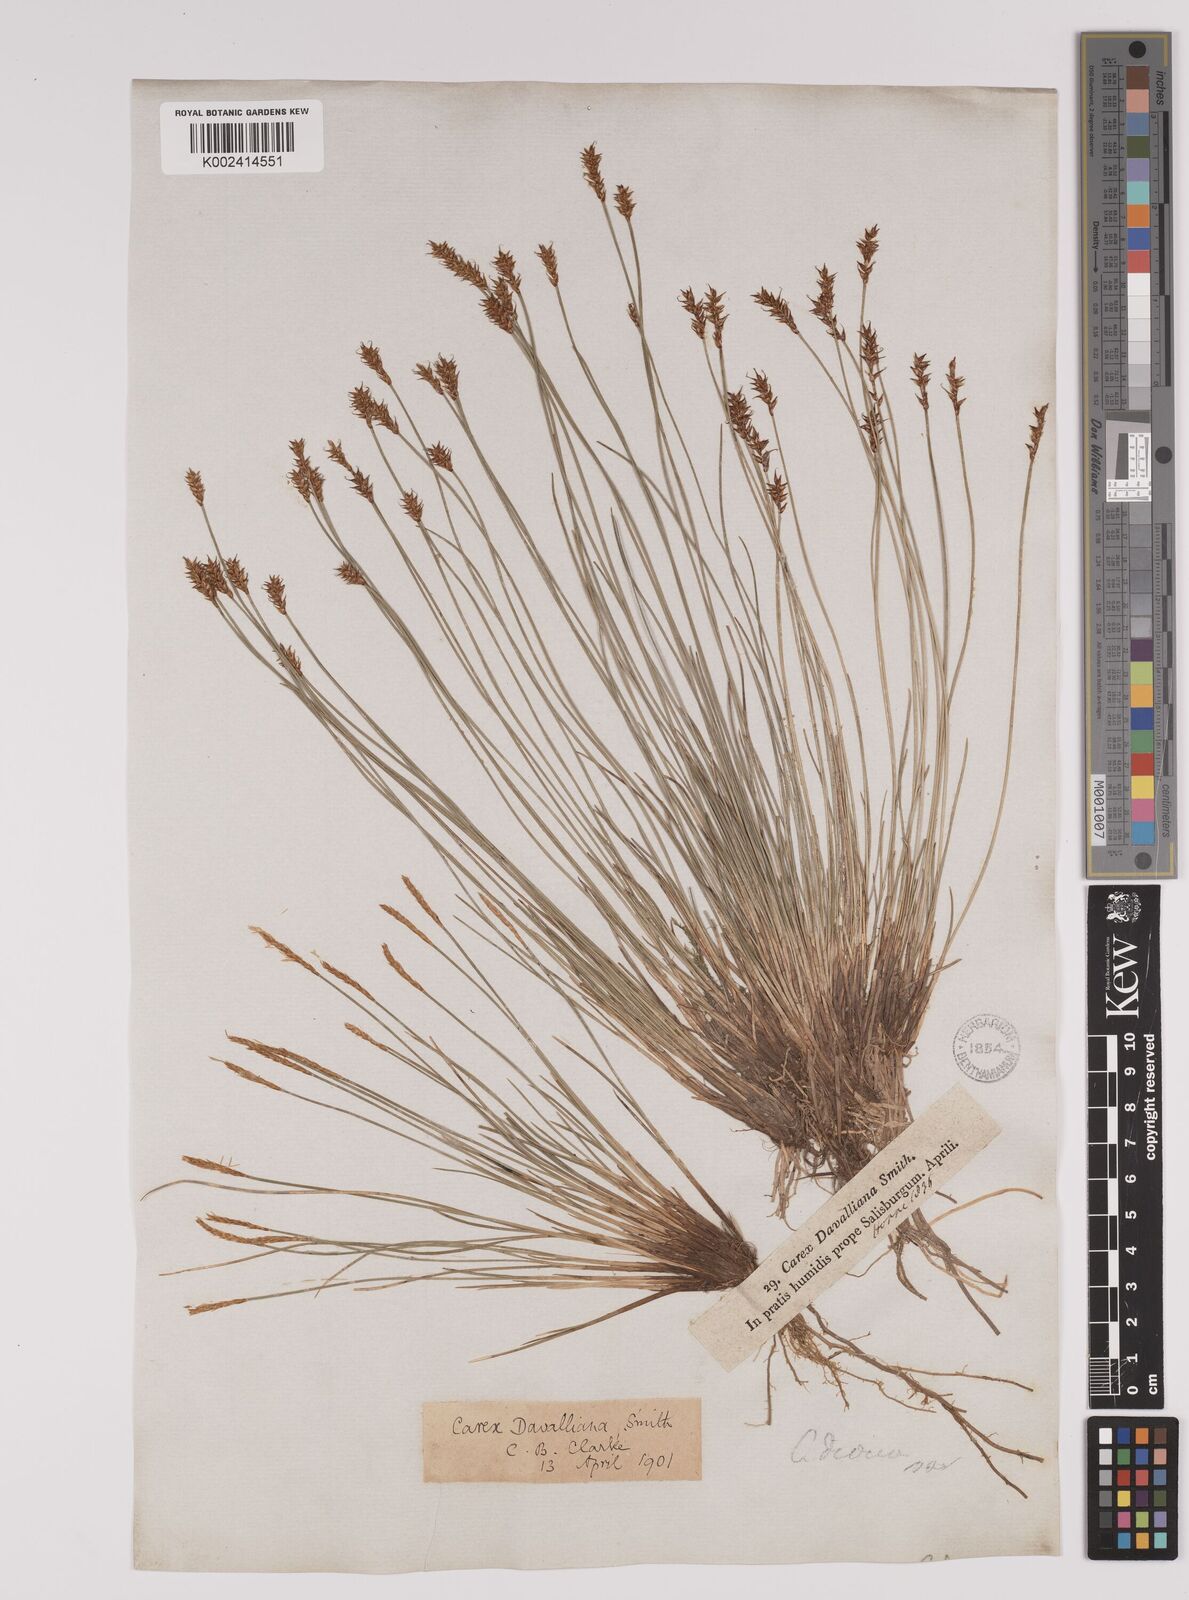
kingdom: Plantae
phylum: Tracheophyta
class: Liliopsida
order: Poales
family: Cyperaceae
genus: Carex
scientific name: Carex davalliana
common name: Davall's sedge
